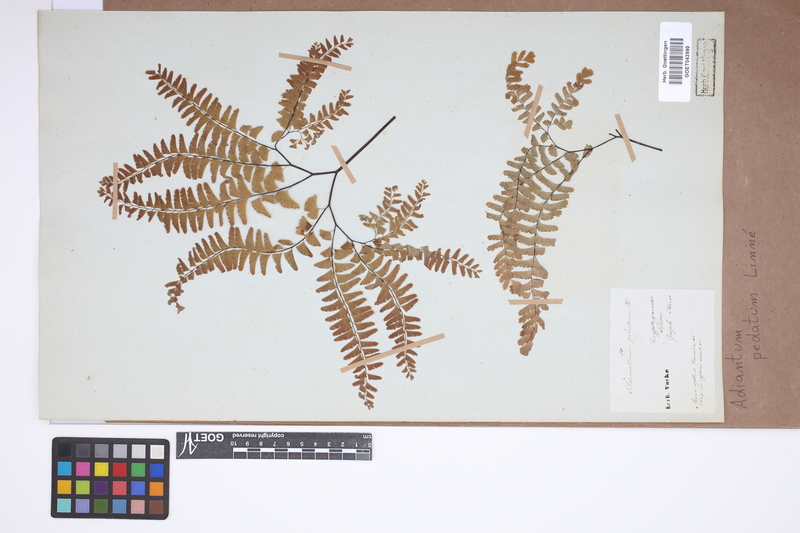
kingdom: Plantae
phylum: Tracheophyta
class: Polypodiopsida
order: Polypodiales
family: Pteridaceae
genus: Adiantum
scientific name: Adiantum pedatum
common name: Five-finger fern
